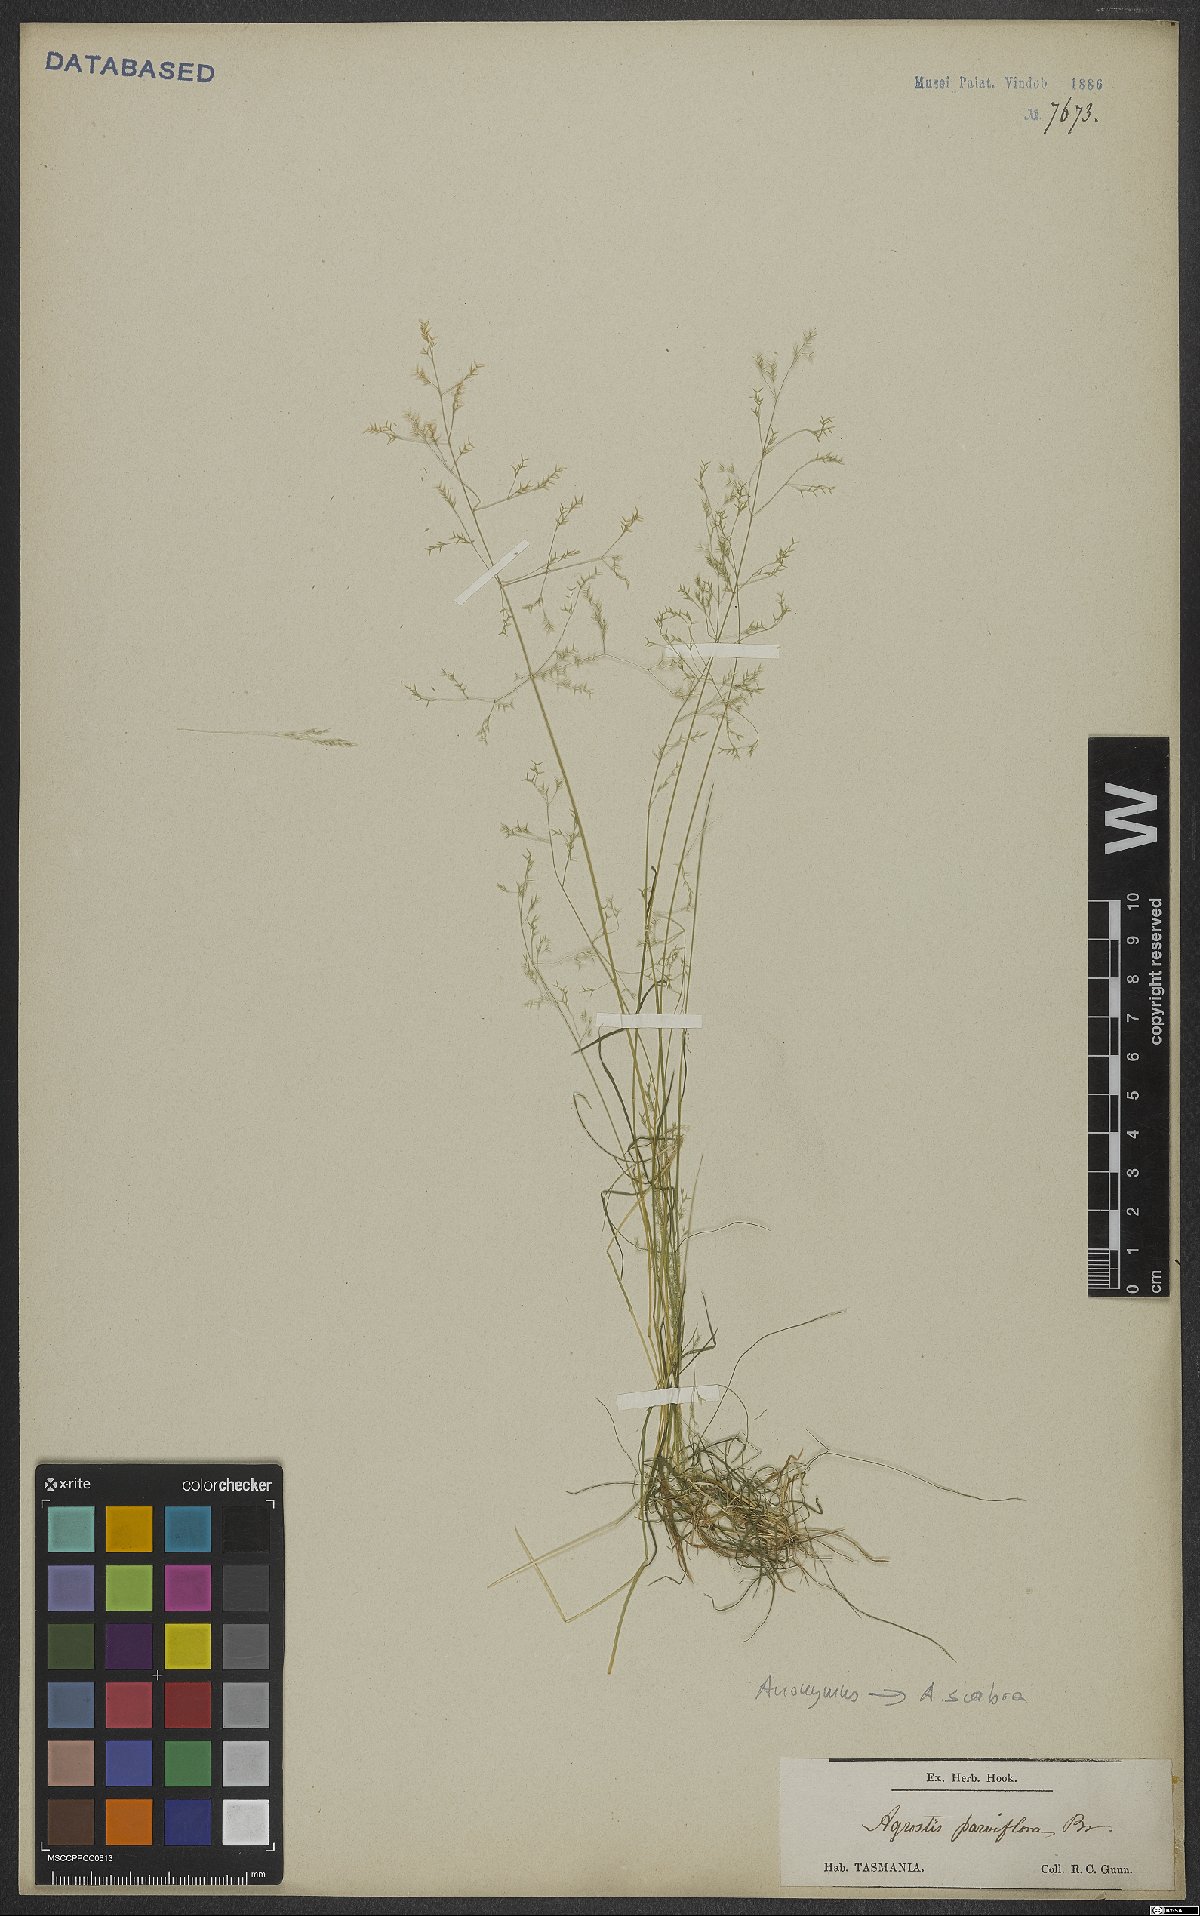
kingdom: Plantae
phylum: Tracheophyta
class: Liliopsida
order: Poales
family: Poaceae
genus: Agrostis
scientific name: Agrostis scabra
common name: Rough bent
